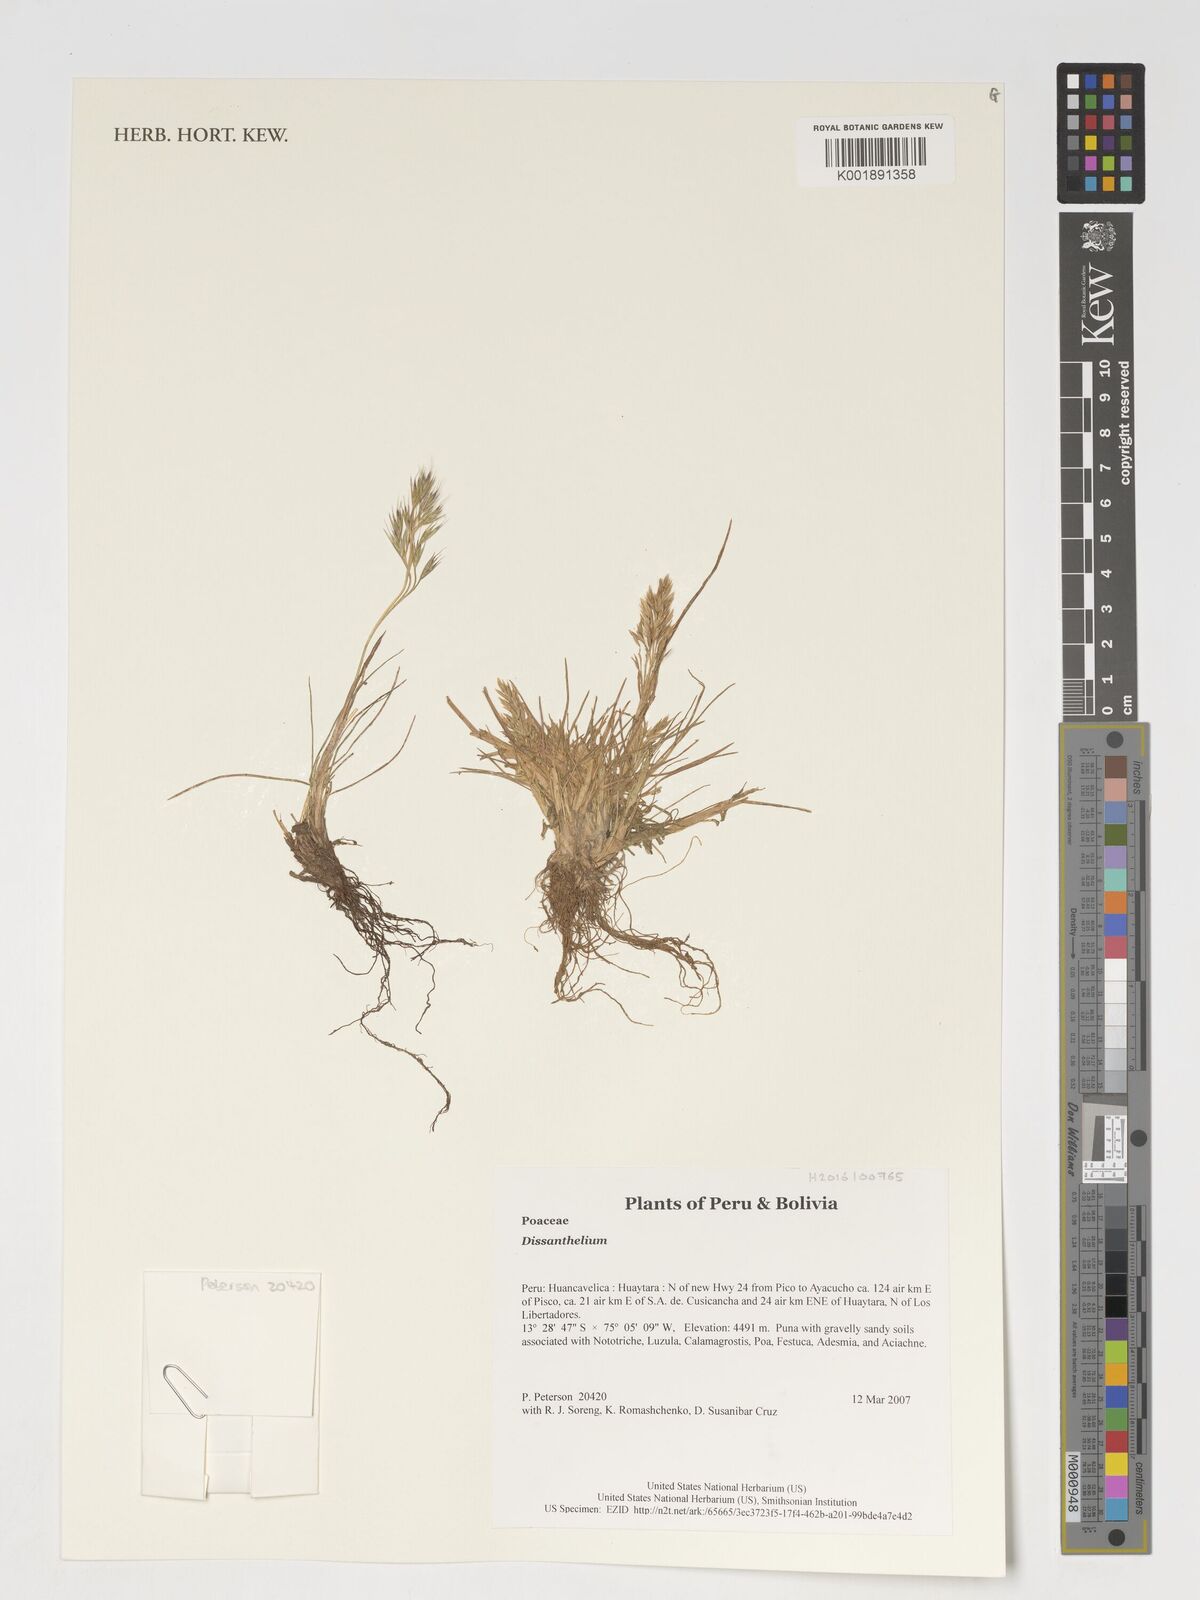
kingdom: Plantae
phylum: Tracheophyta
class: Liliopsida
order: Poales
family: Poaceae
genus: Poa
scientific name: Poa
